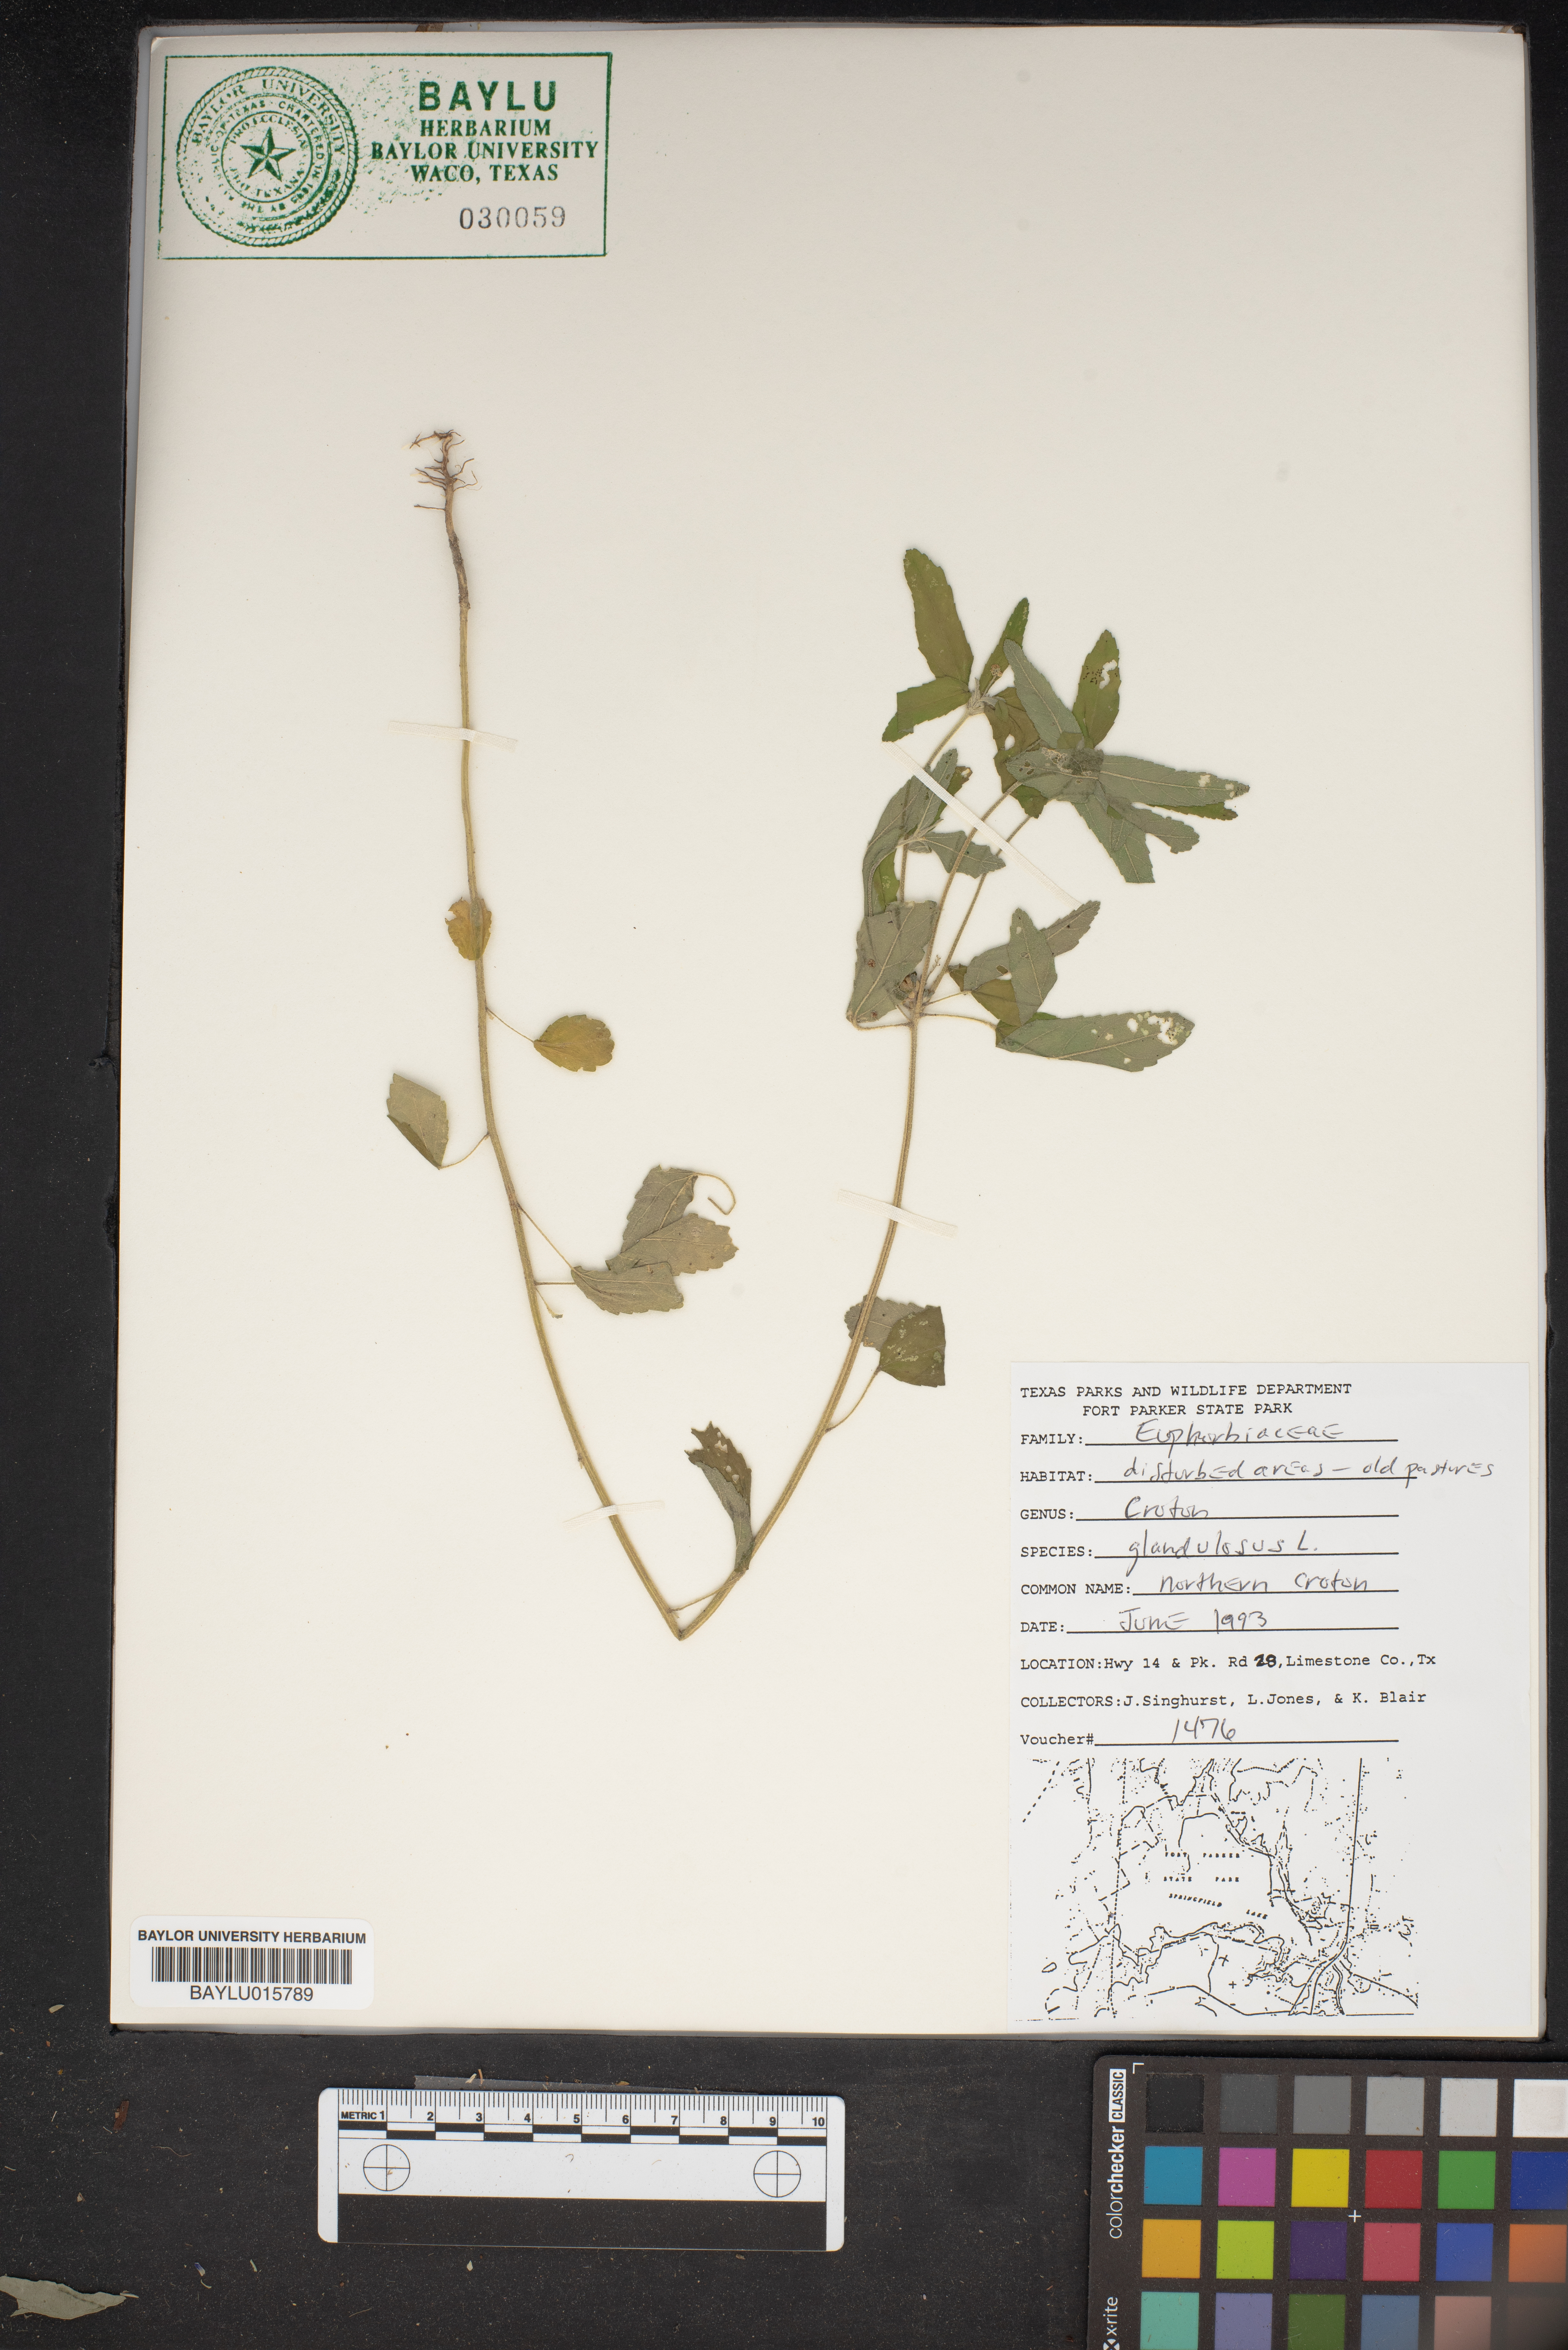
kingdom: Plantae
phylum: Tracheophyta
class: Magnoliopsida
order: Malpighiales
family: Euphorbiaceae
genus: Croton
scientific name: Croton glandulosus
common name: Tropic croton
